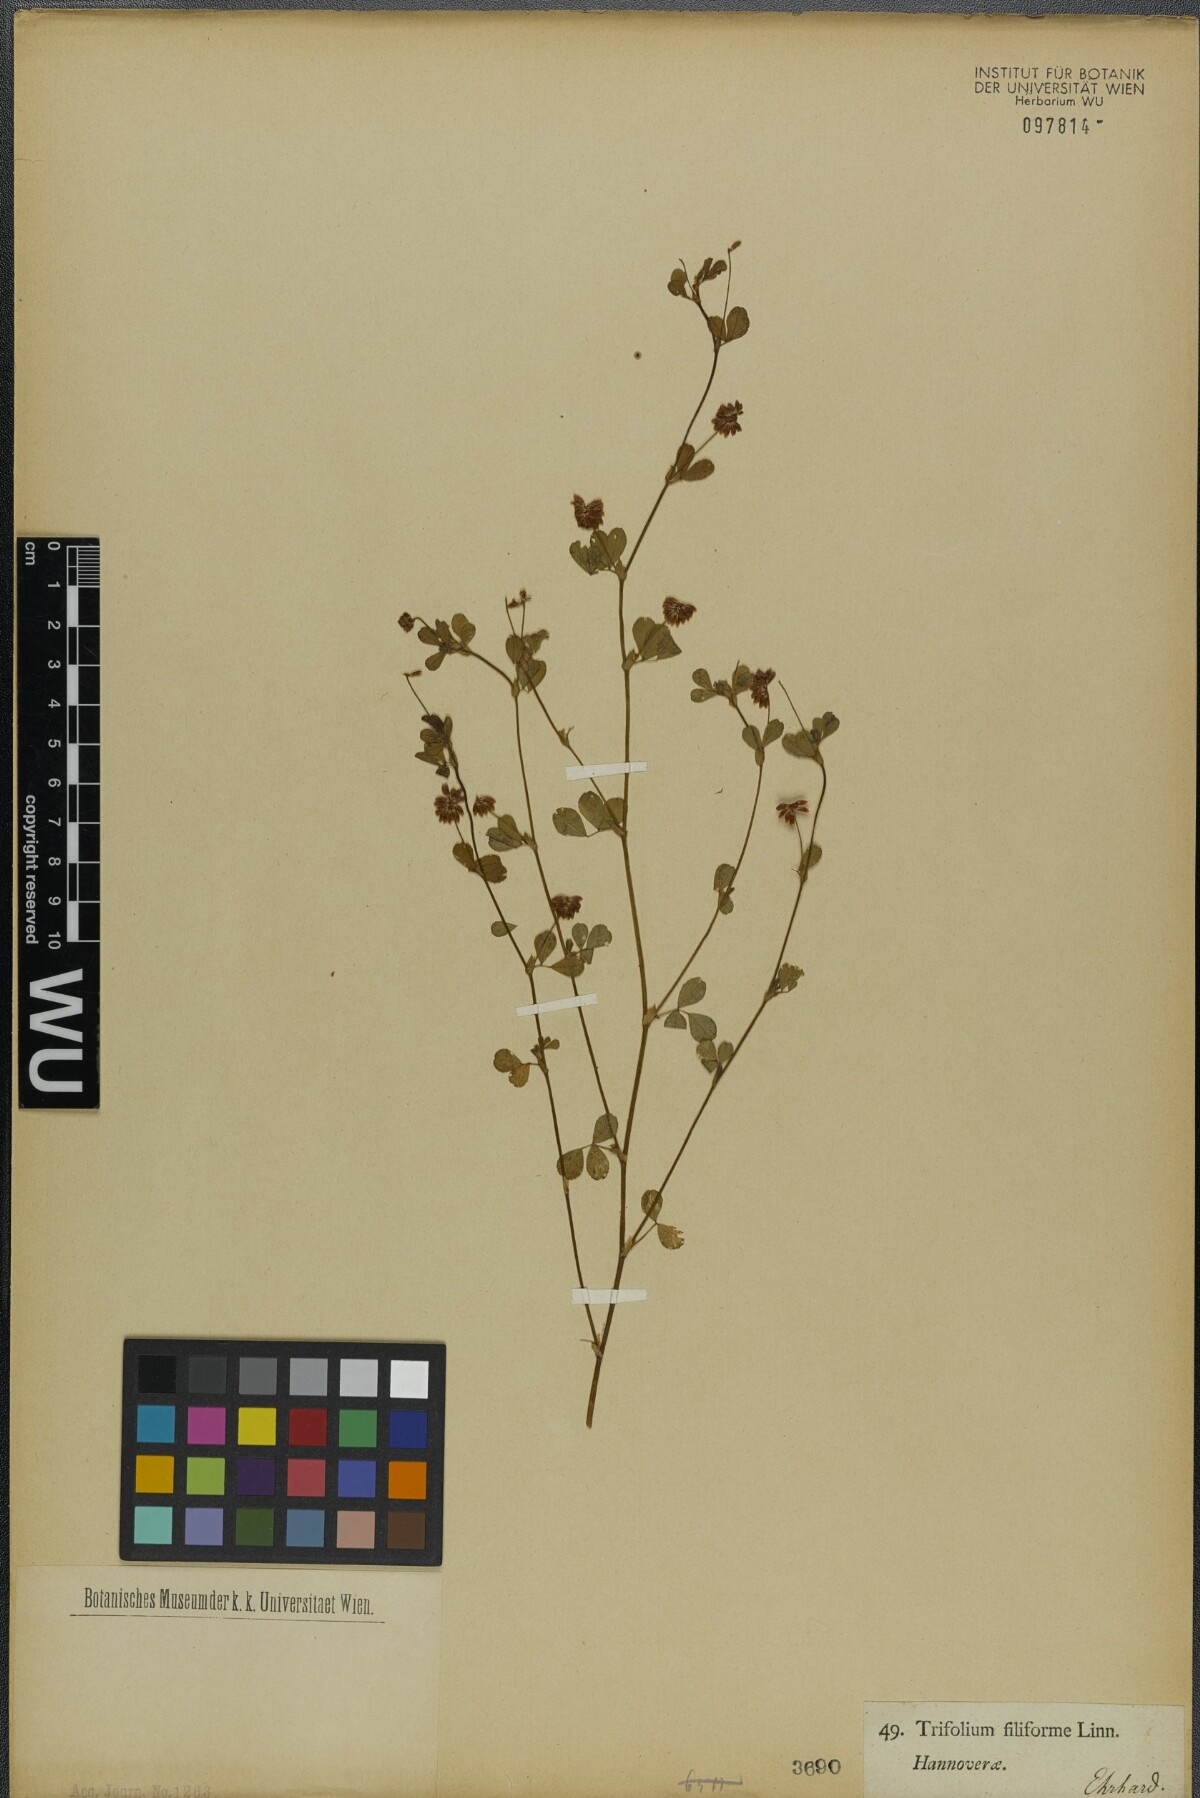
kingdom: Plantae
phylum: Tracheophyta
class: Magnoliopsida
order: Fabales
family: Fabaceae
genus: Trifolium
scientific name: Trifolium micranthum
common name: Slender trefoil
